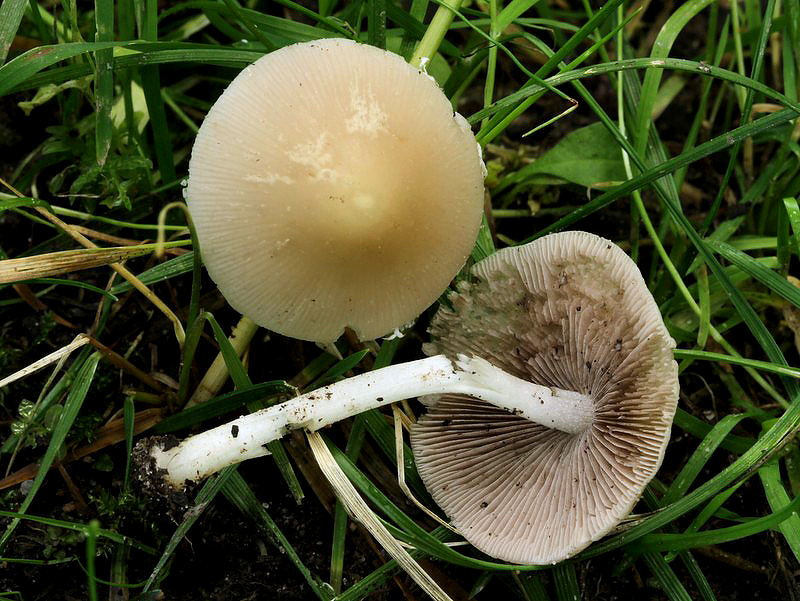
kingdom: Fungi
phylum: Basidiomycota
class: Agaricomycetes
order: Agaricales
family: Psathyrellaceae
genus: Candolleomyces
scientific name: Candolleomyces candolleanus
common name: Candolles mørkhat
